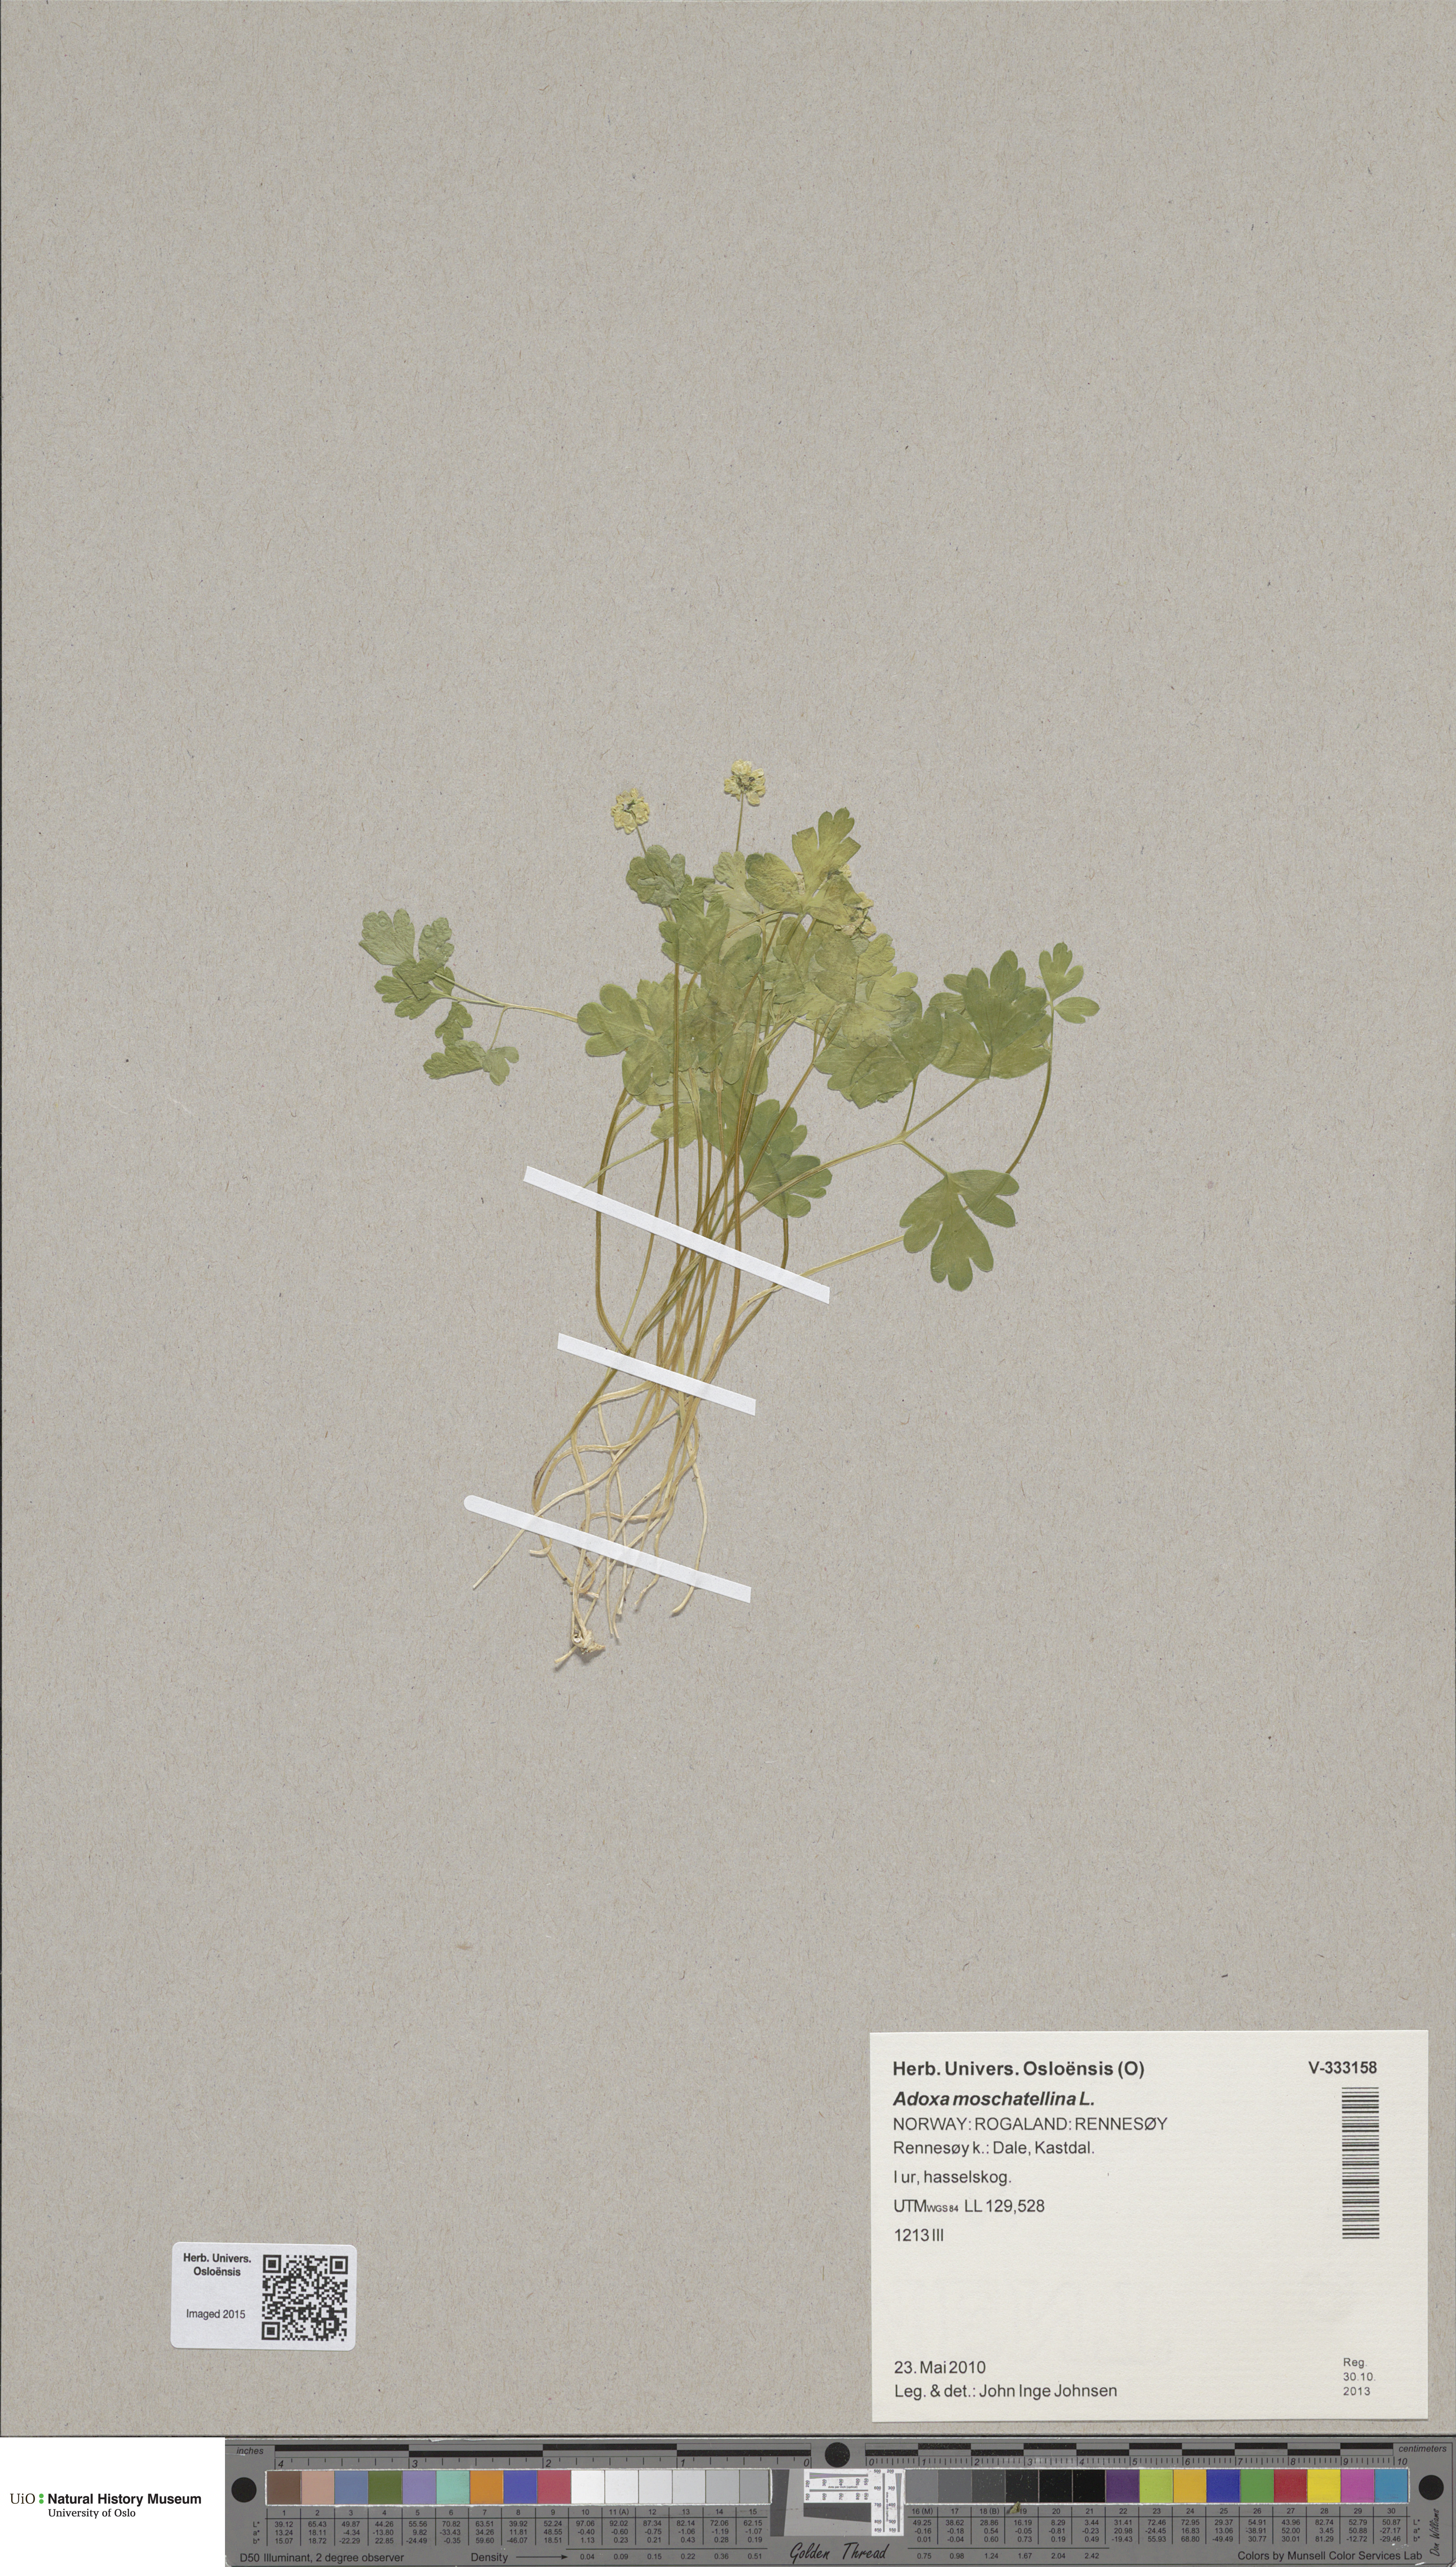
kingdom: Plantae
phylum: Tracheophyta
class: Magnoliopsida
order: Dipsacales
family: Viburnaceae
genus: Adoxa
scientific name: Adoxa moschatellina
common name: Moschatel
